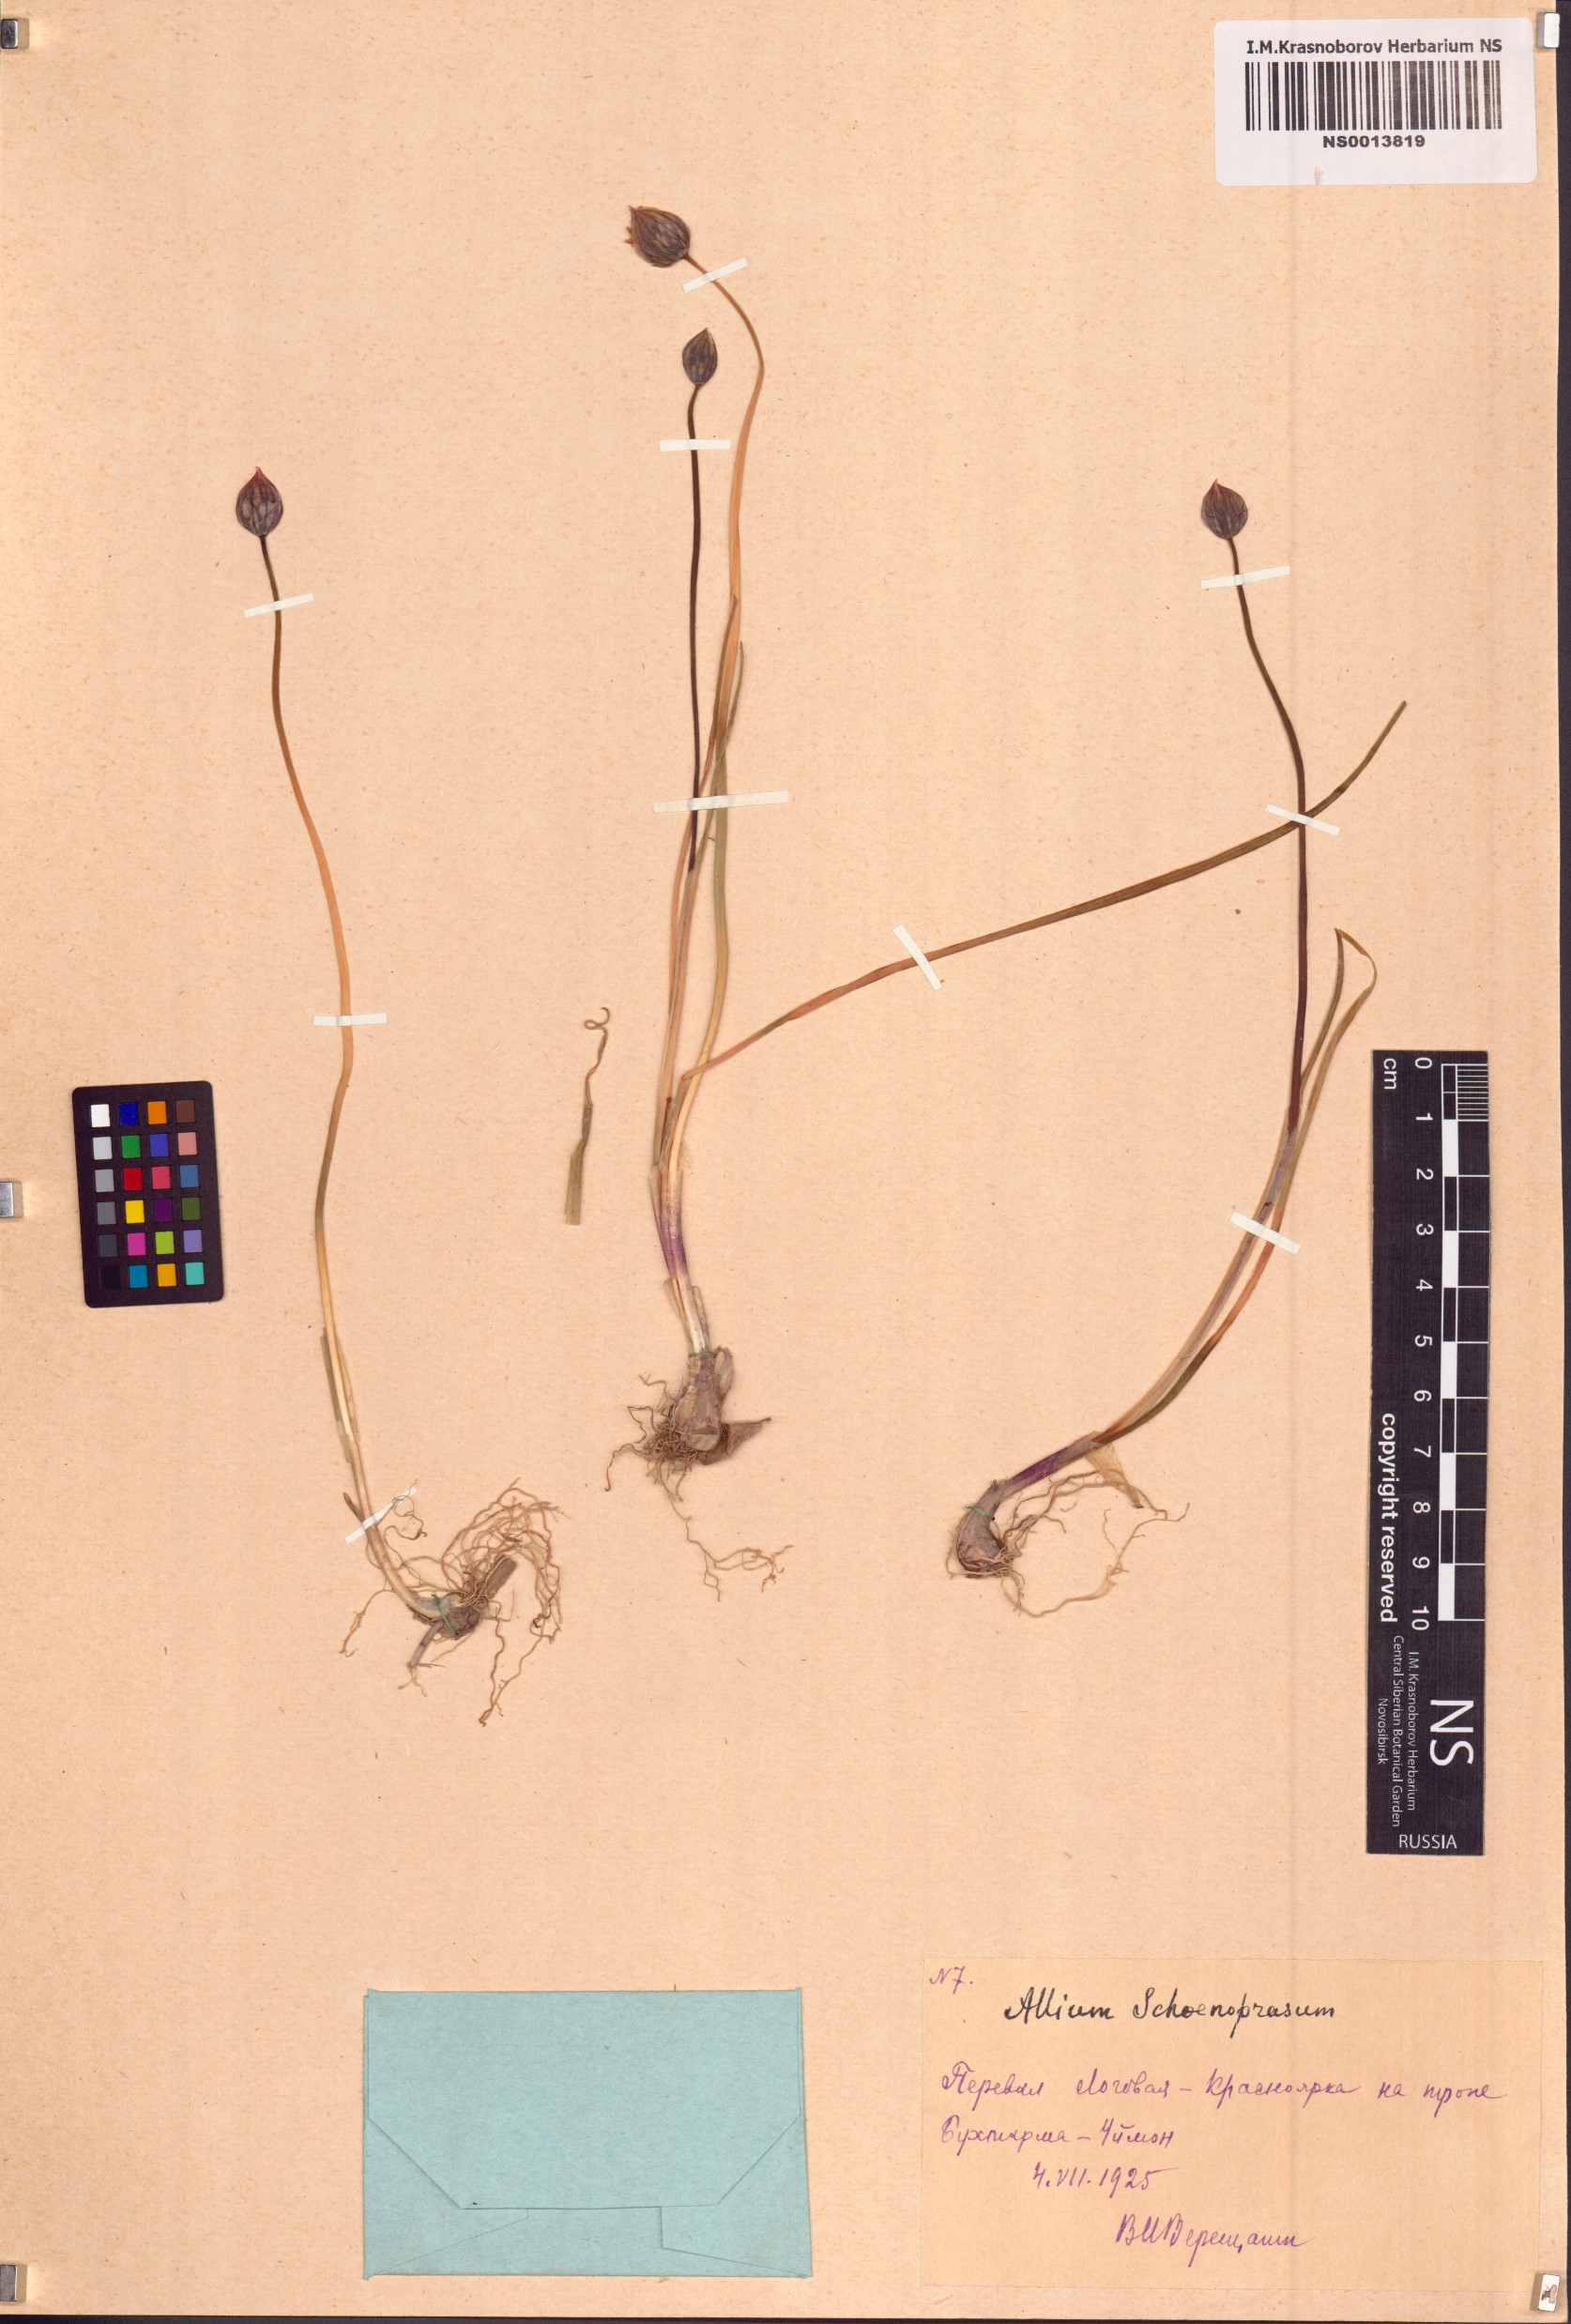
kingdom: Plantae
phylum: Tracheophyta
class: Liliopsida
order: Asparagales
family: Amaryllidaceae
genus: Allium
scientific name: Allium schoenoprasum
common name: Chives
